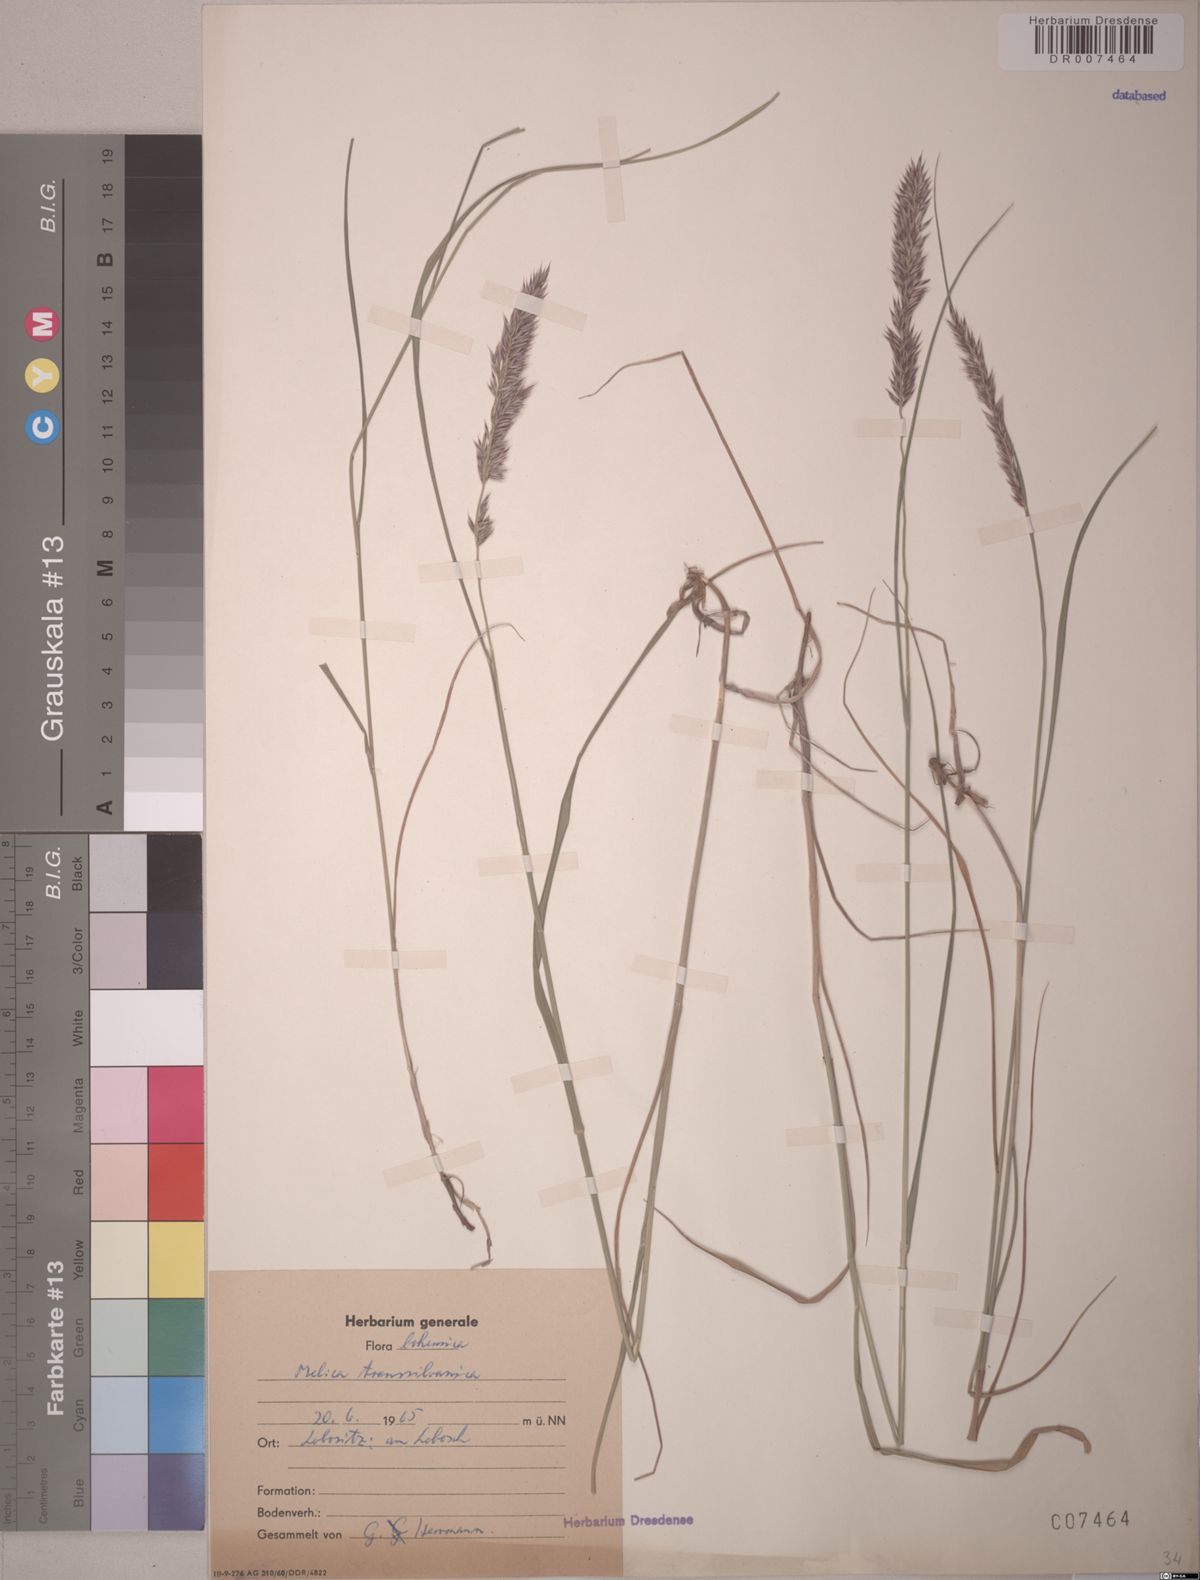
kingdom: Plantae
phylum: Tracheophyta
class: Liliopsida
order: Poales
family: Poaceae
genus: Melica
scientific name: Melica transsilvanica
